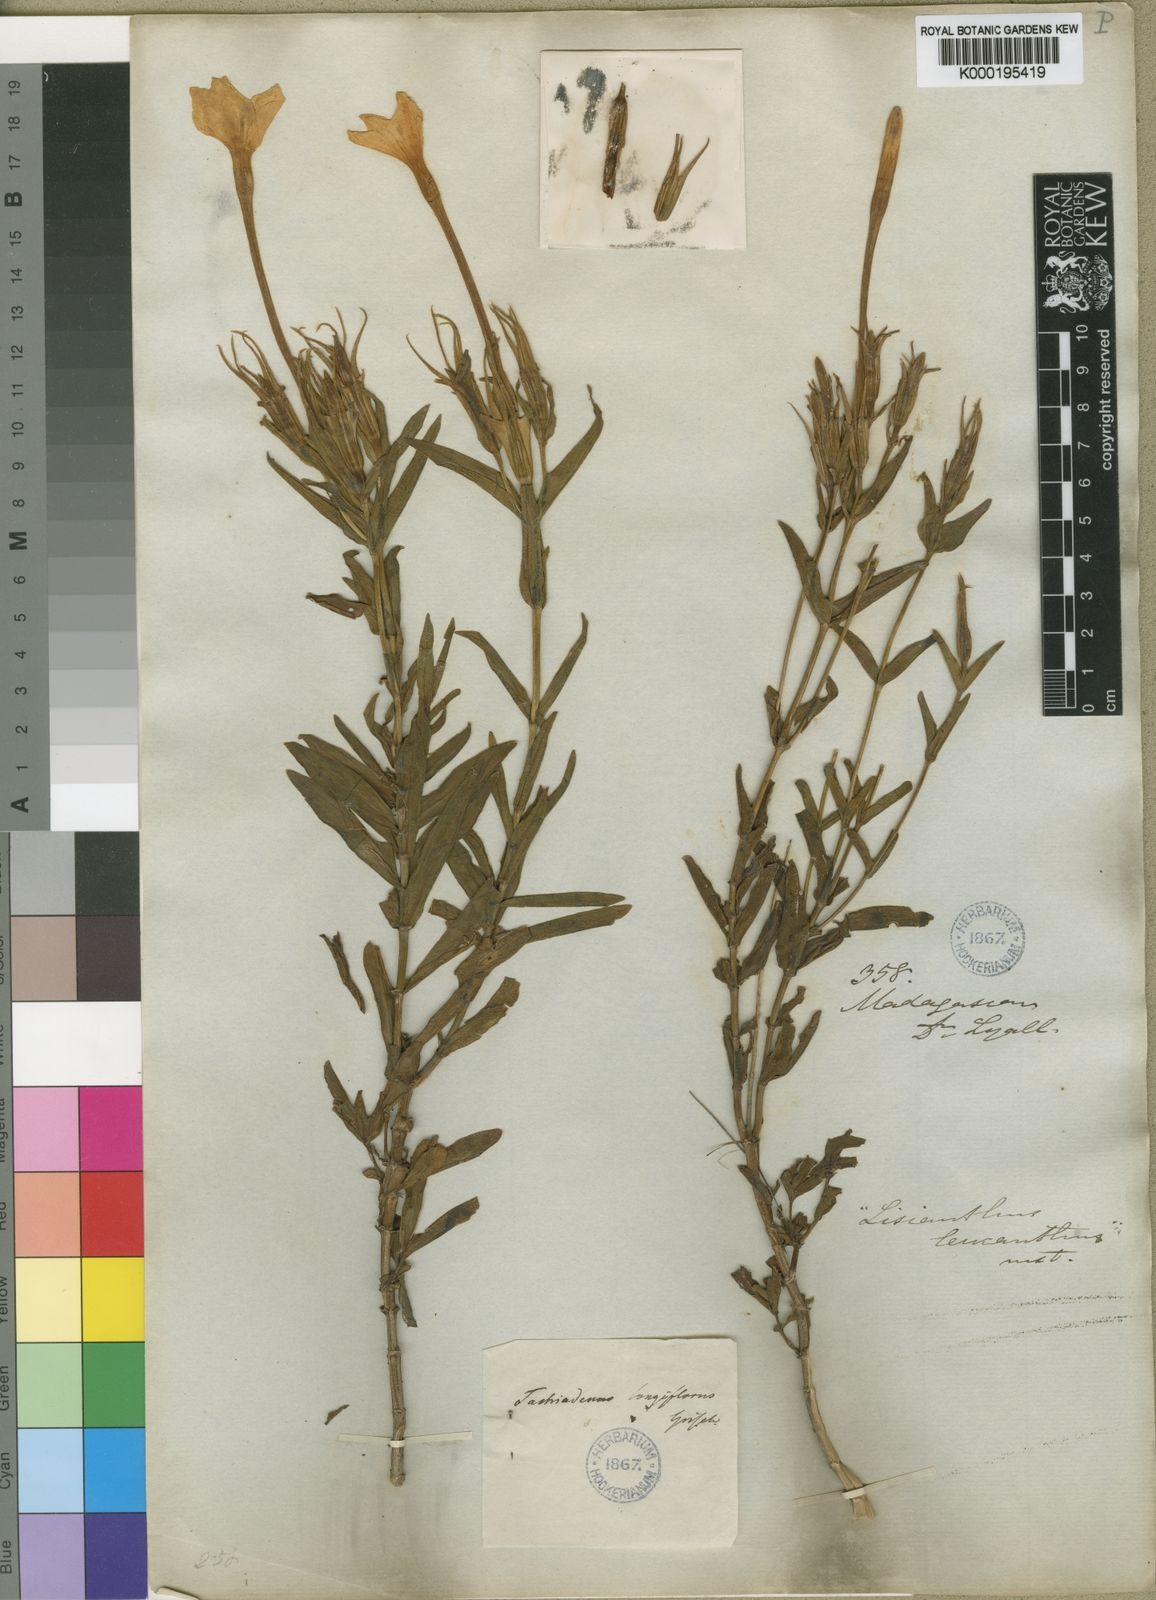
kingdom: Plantae
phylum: Tracheophyta
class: Magnoliopsida
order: Gentianales
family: Gentianaceae
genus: Tachiadenus
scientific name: Tachiadenus longiflorus
